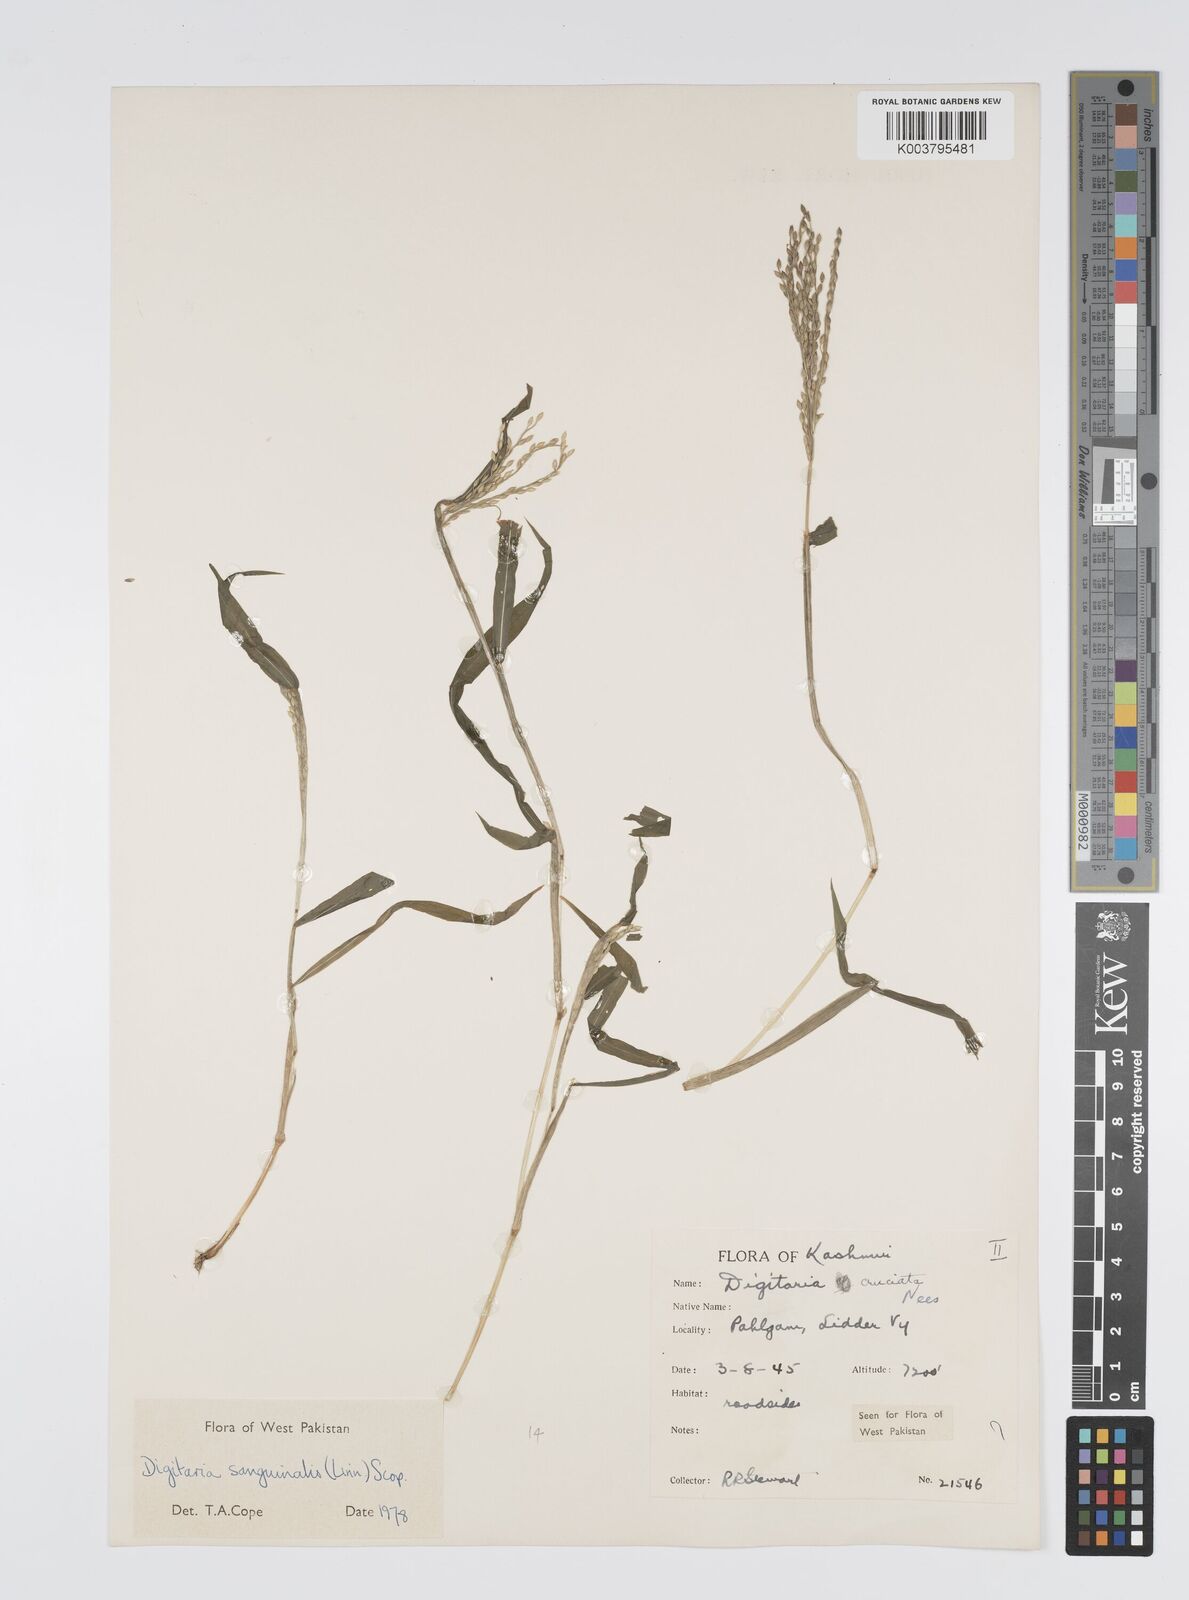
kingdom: Plantae
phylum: Tracheophyta
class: Liliopsida
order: Poales
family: Poaceae
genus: Digitaria
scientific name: Digitaria sanguinalis
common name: Hairy crabgrass
